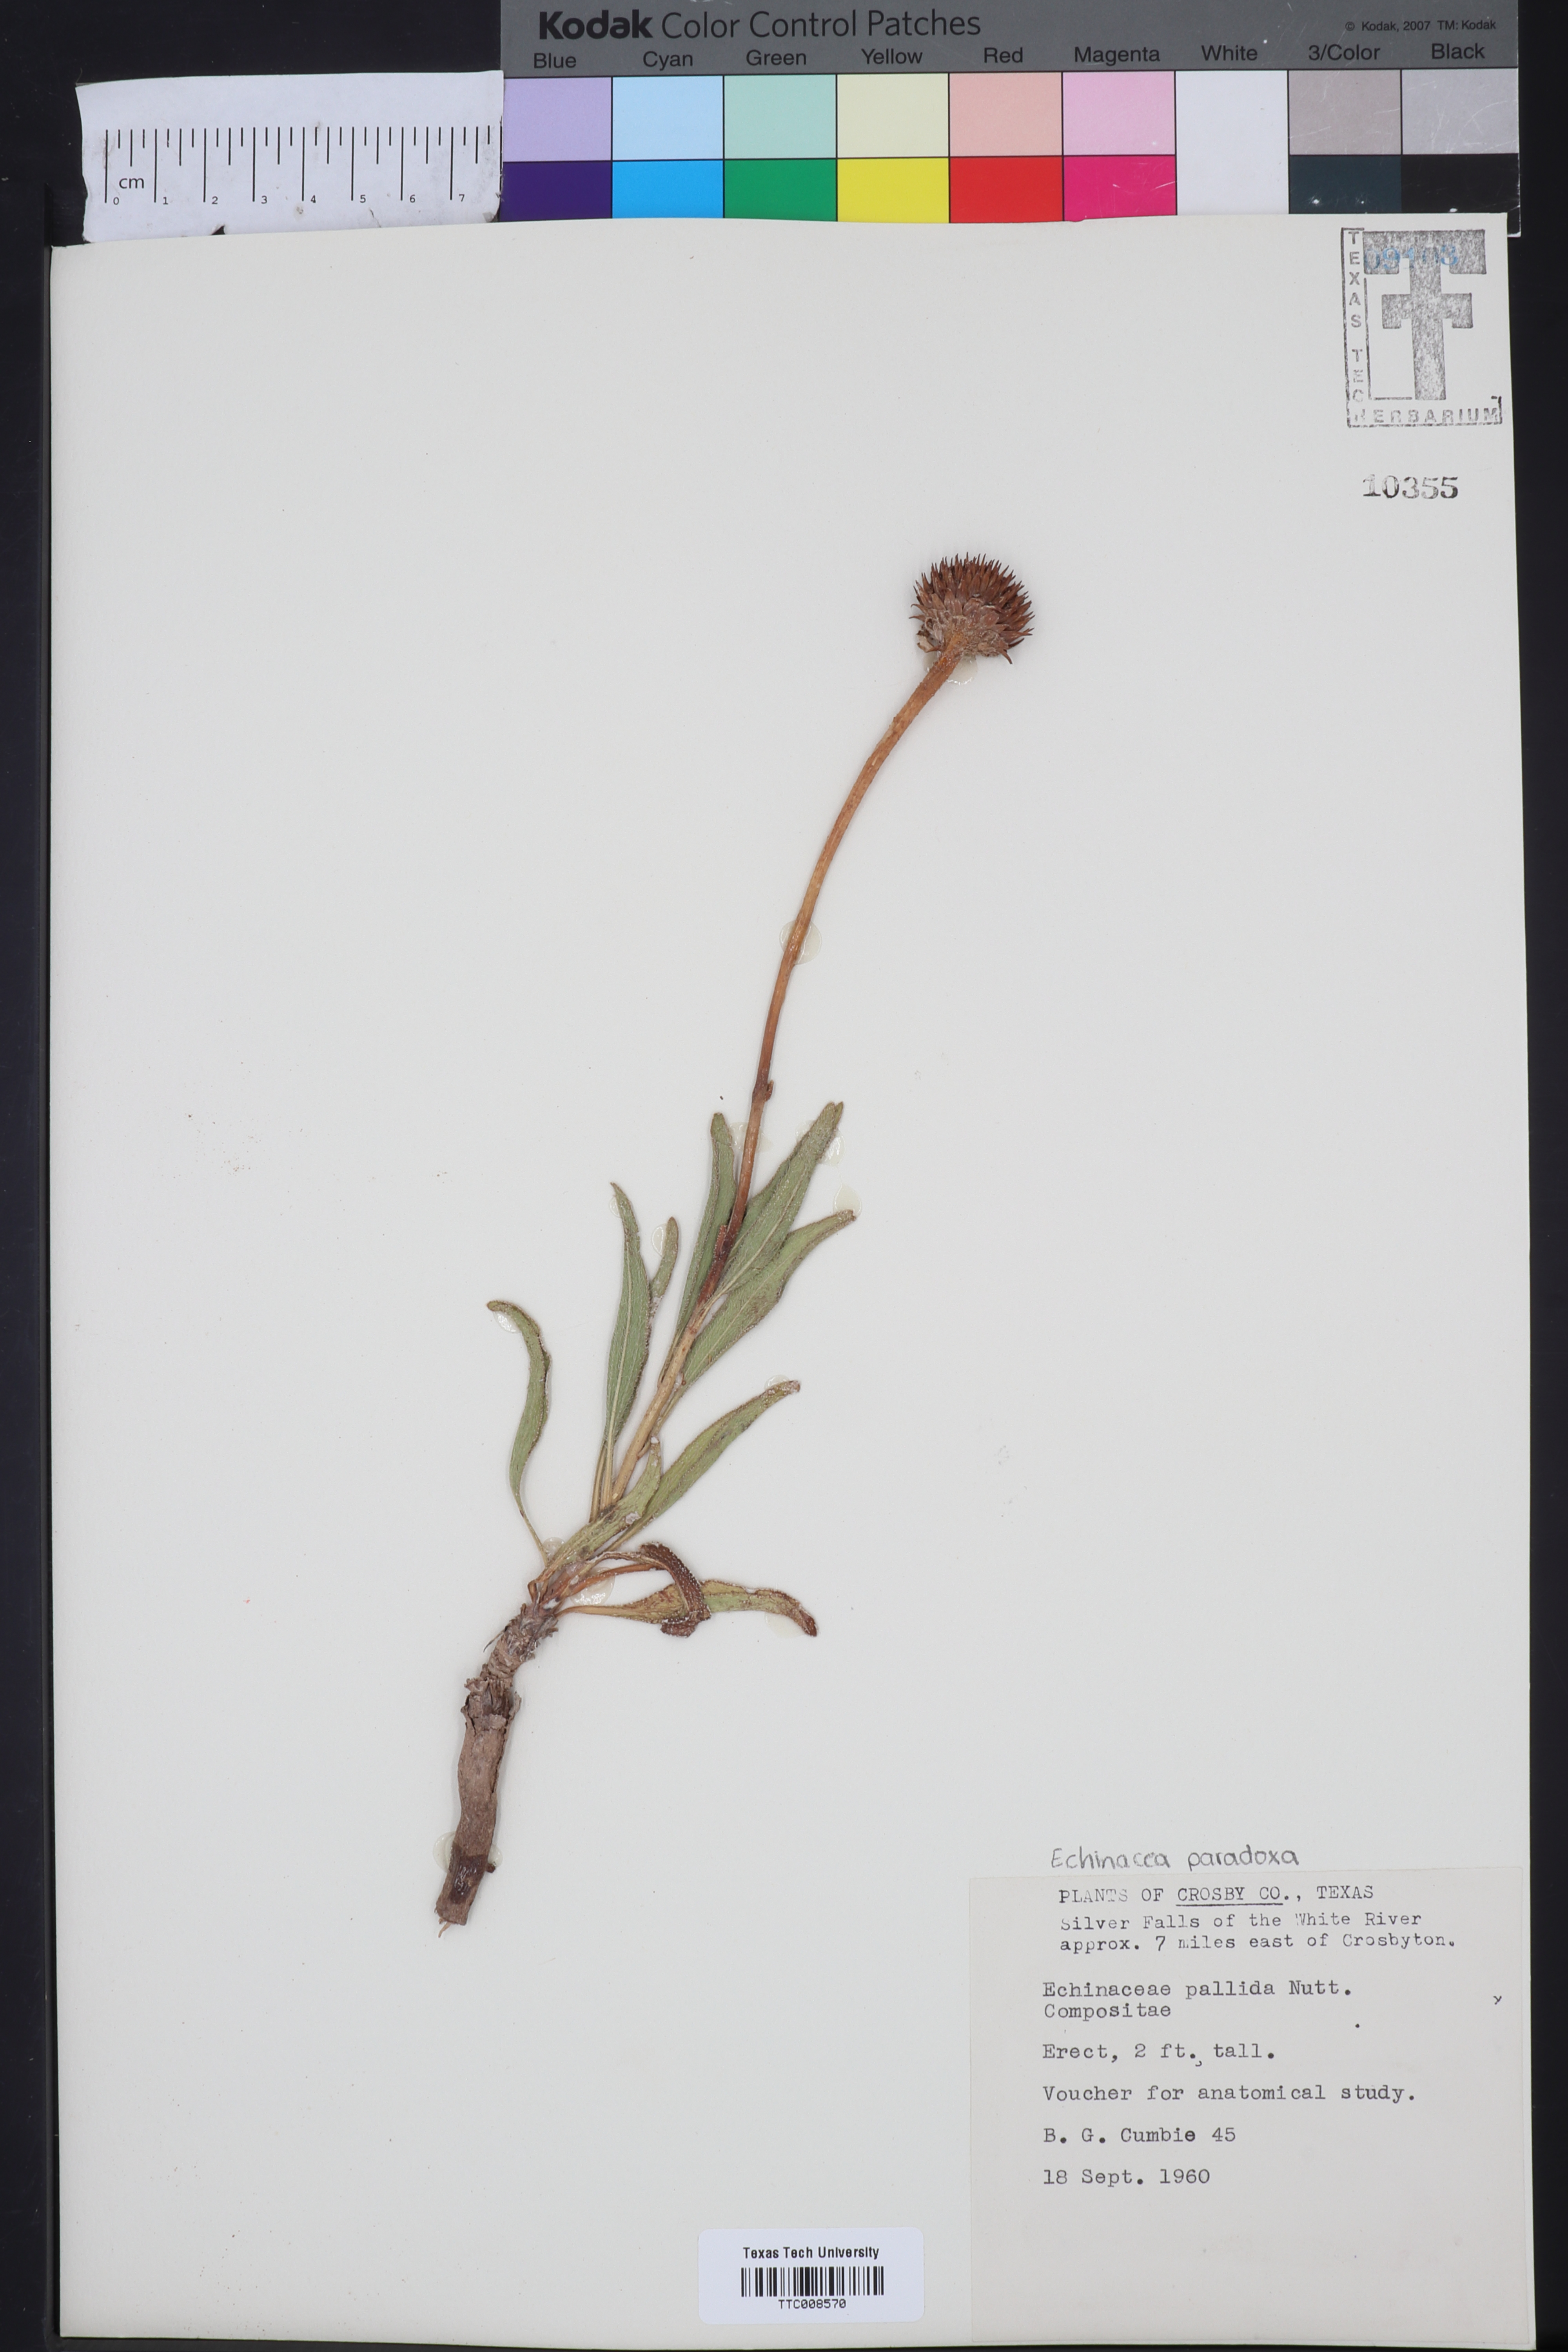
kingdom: Plantae
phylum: Tracheophyta
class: Magnoliopsida
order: Asterales
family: Asteraceae
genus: Echinacea
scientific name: Echinacea pallida
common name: Pale echinacea
